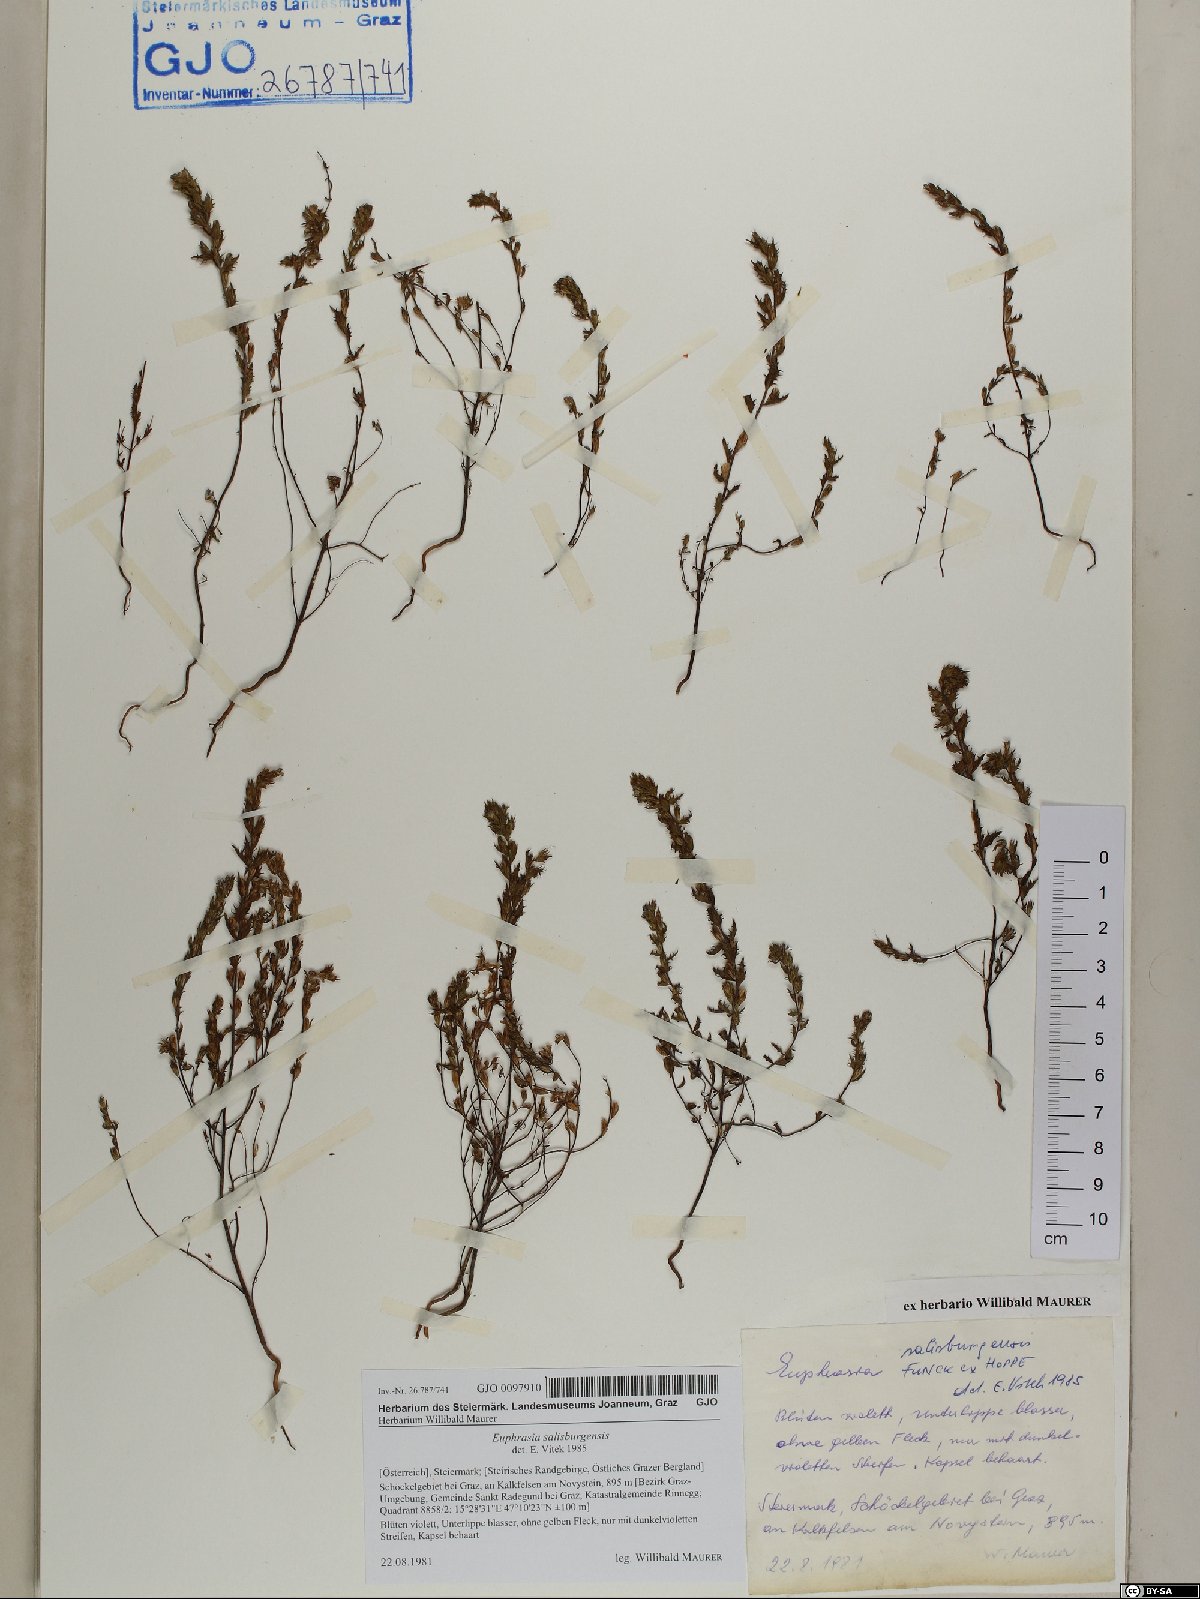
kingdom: Plantae
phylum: Tracheophyta
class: Magnoliopsida
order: Lamiales
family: Orobanchaceae
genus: Euphrasia
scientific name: Euphrasia salisburgensis
